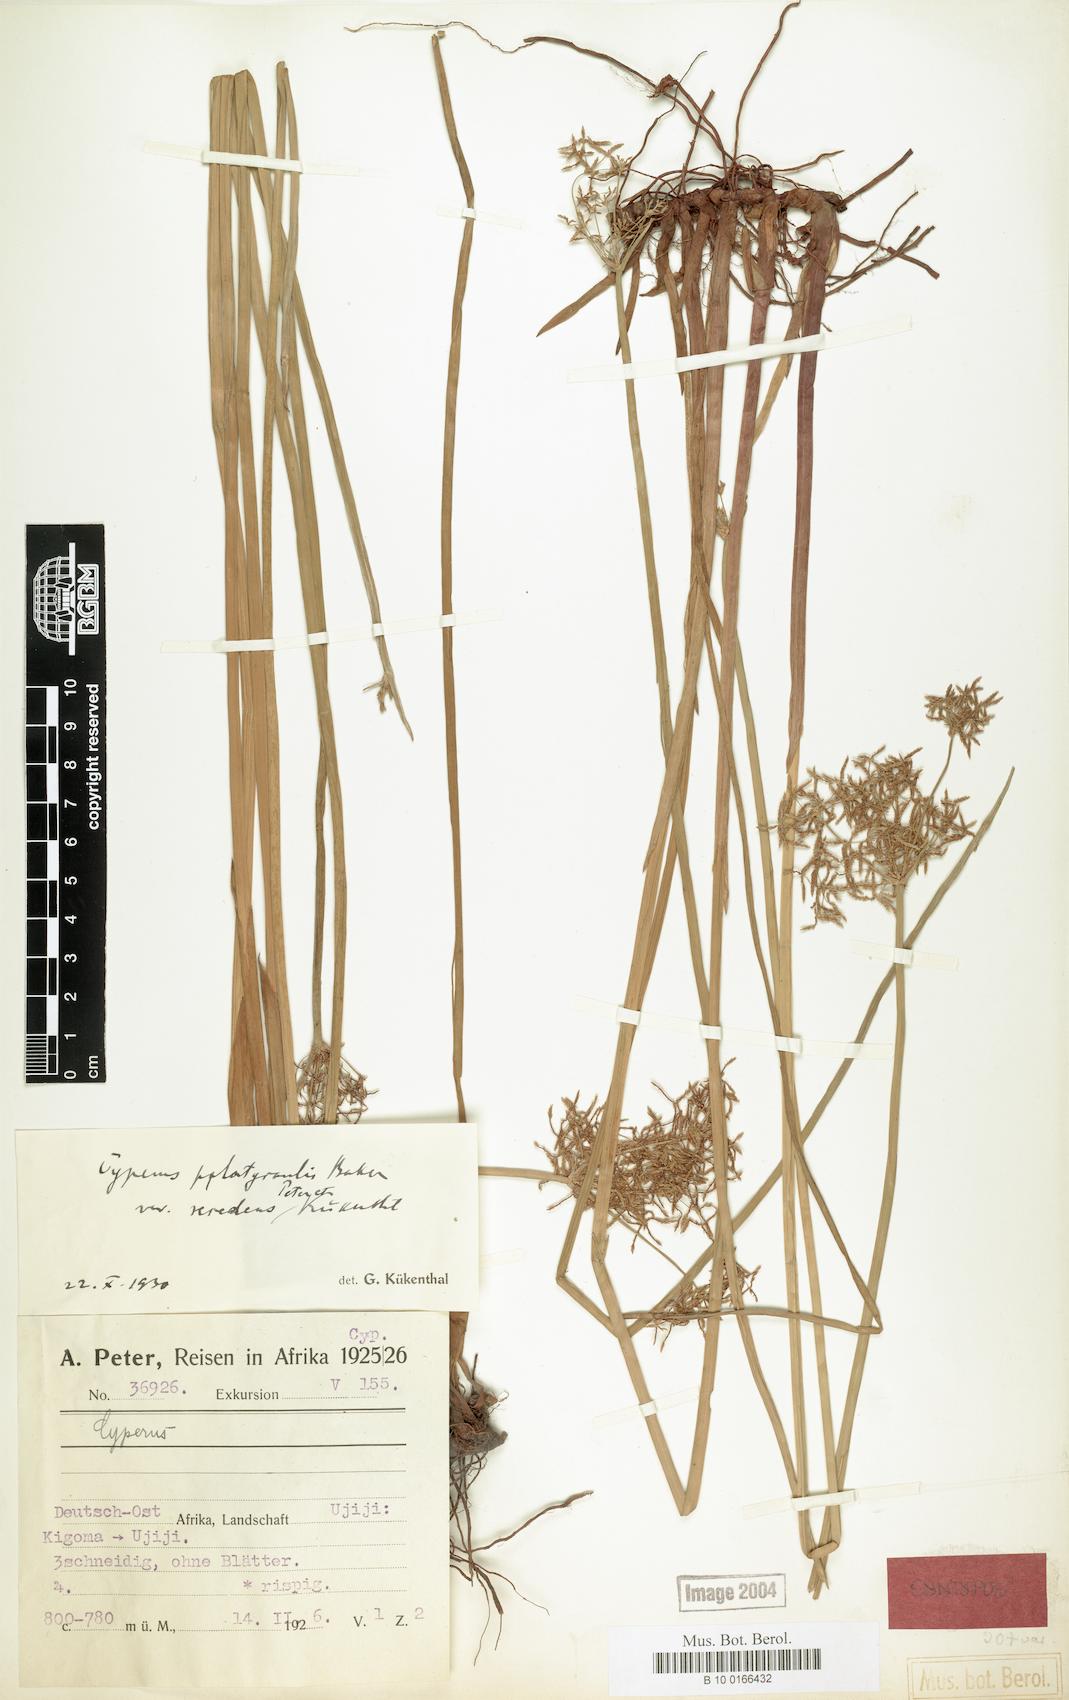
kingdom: Plantae
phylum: Tracheophyta
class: Liliopsida
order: Poales
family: Cyperaceae
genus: Cyperus
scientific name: Cyperus denudatus
